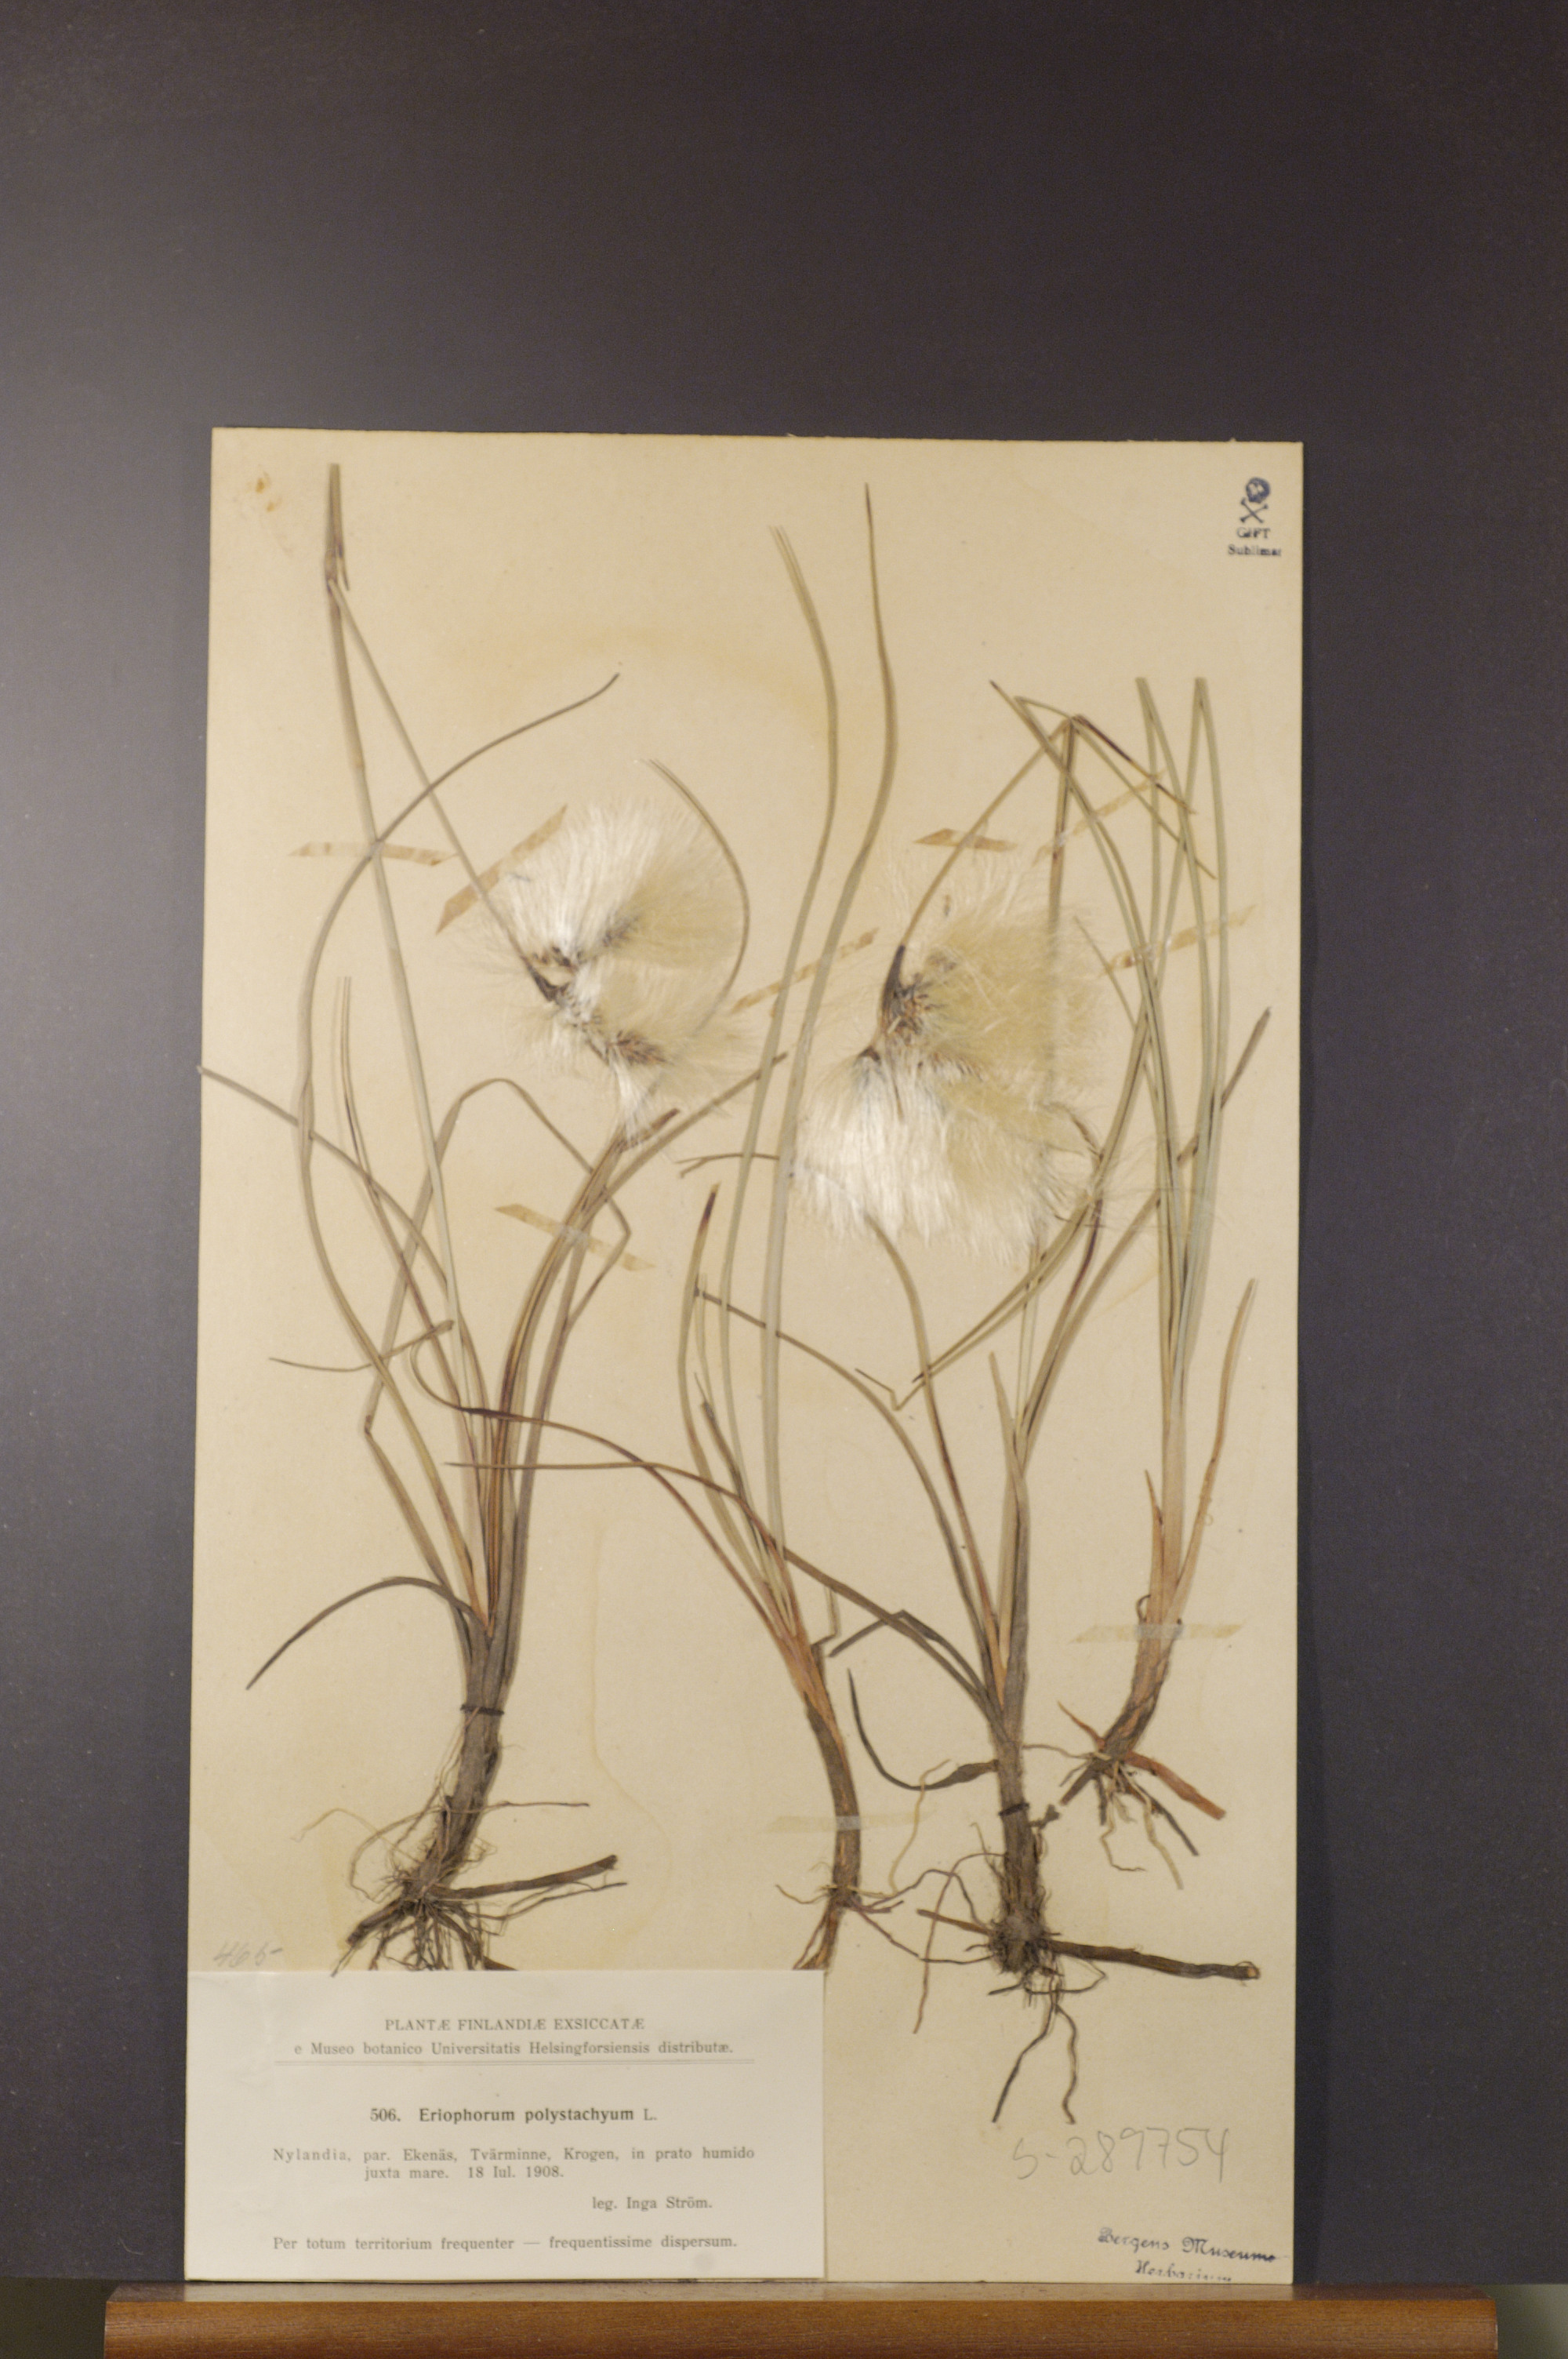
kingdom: Plantae
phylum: Tracheophyta
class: Liliopsida
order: Poales
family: Cyperaceae
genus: Eriophorum
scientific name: Eriophorum angustifolium
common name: Common cottongrass
